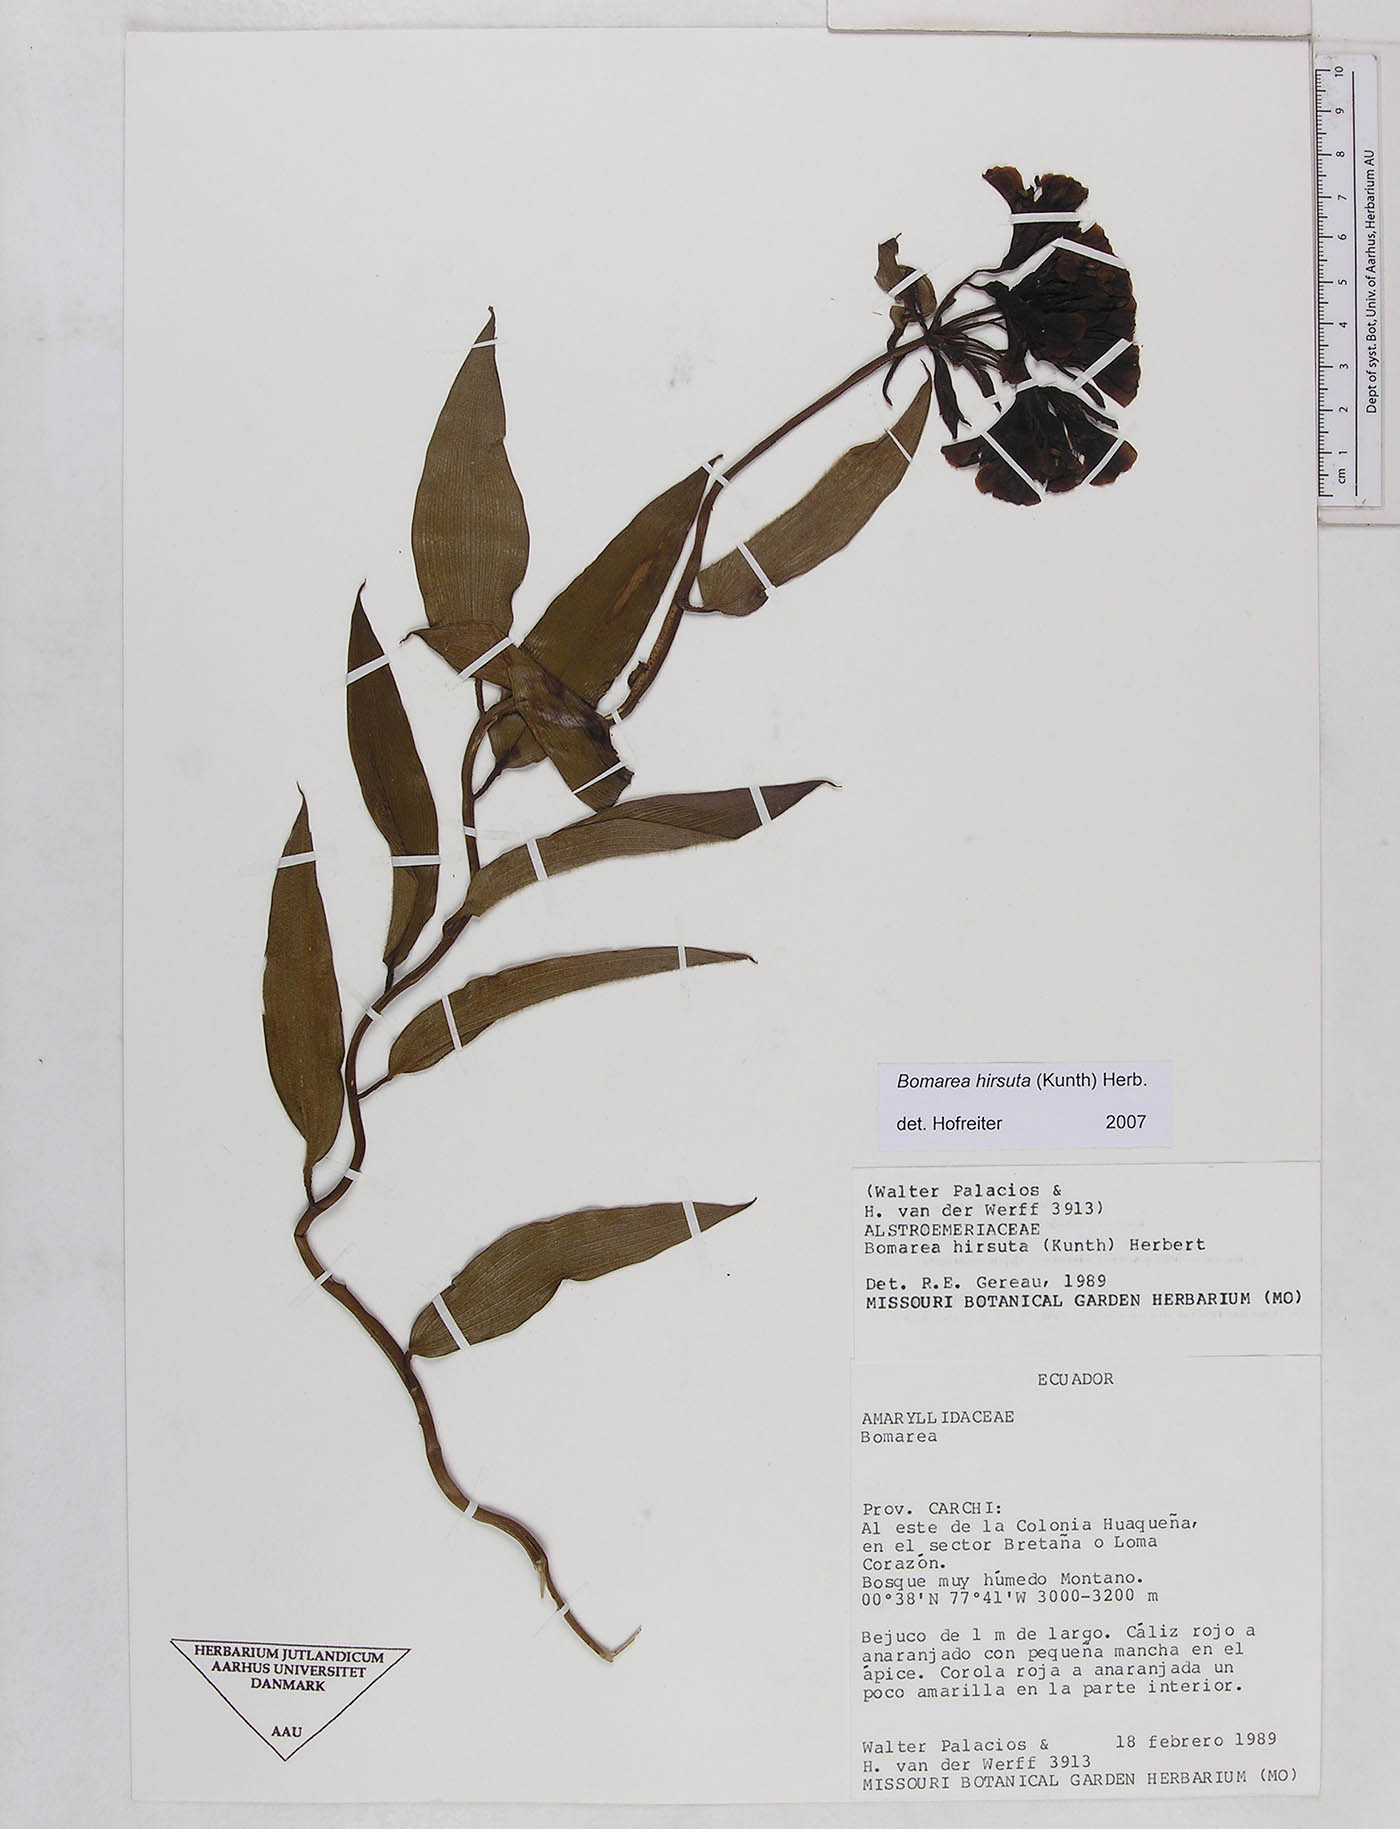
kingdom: Plantae
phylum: Tracheophyta
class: Liliopsida
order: Liliales
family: Alstroemeriaceae
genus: Bomarea
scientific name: Bomarea hirsuta
